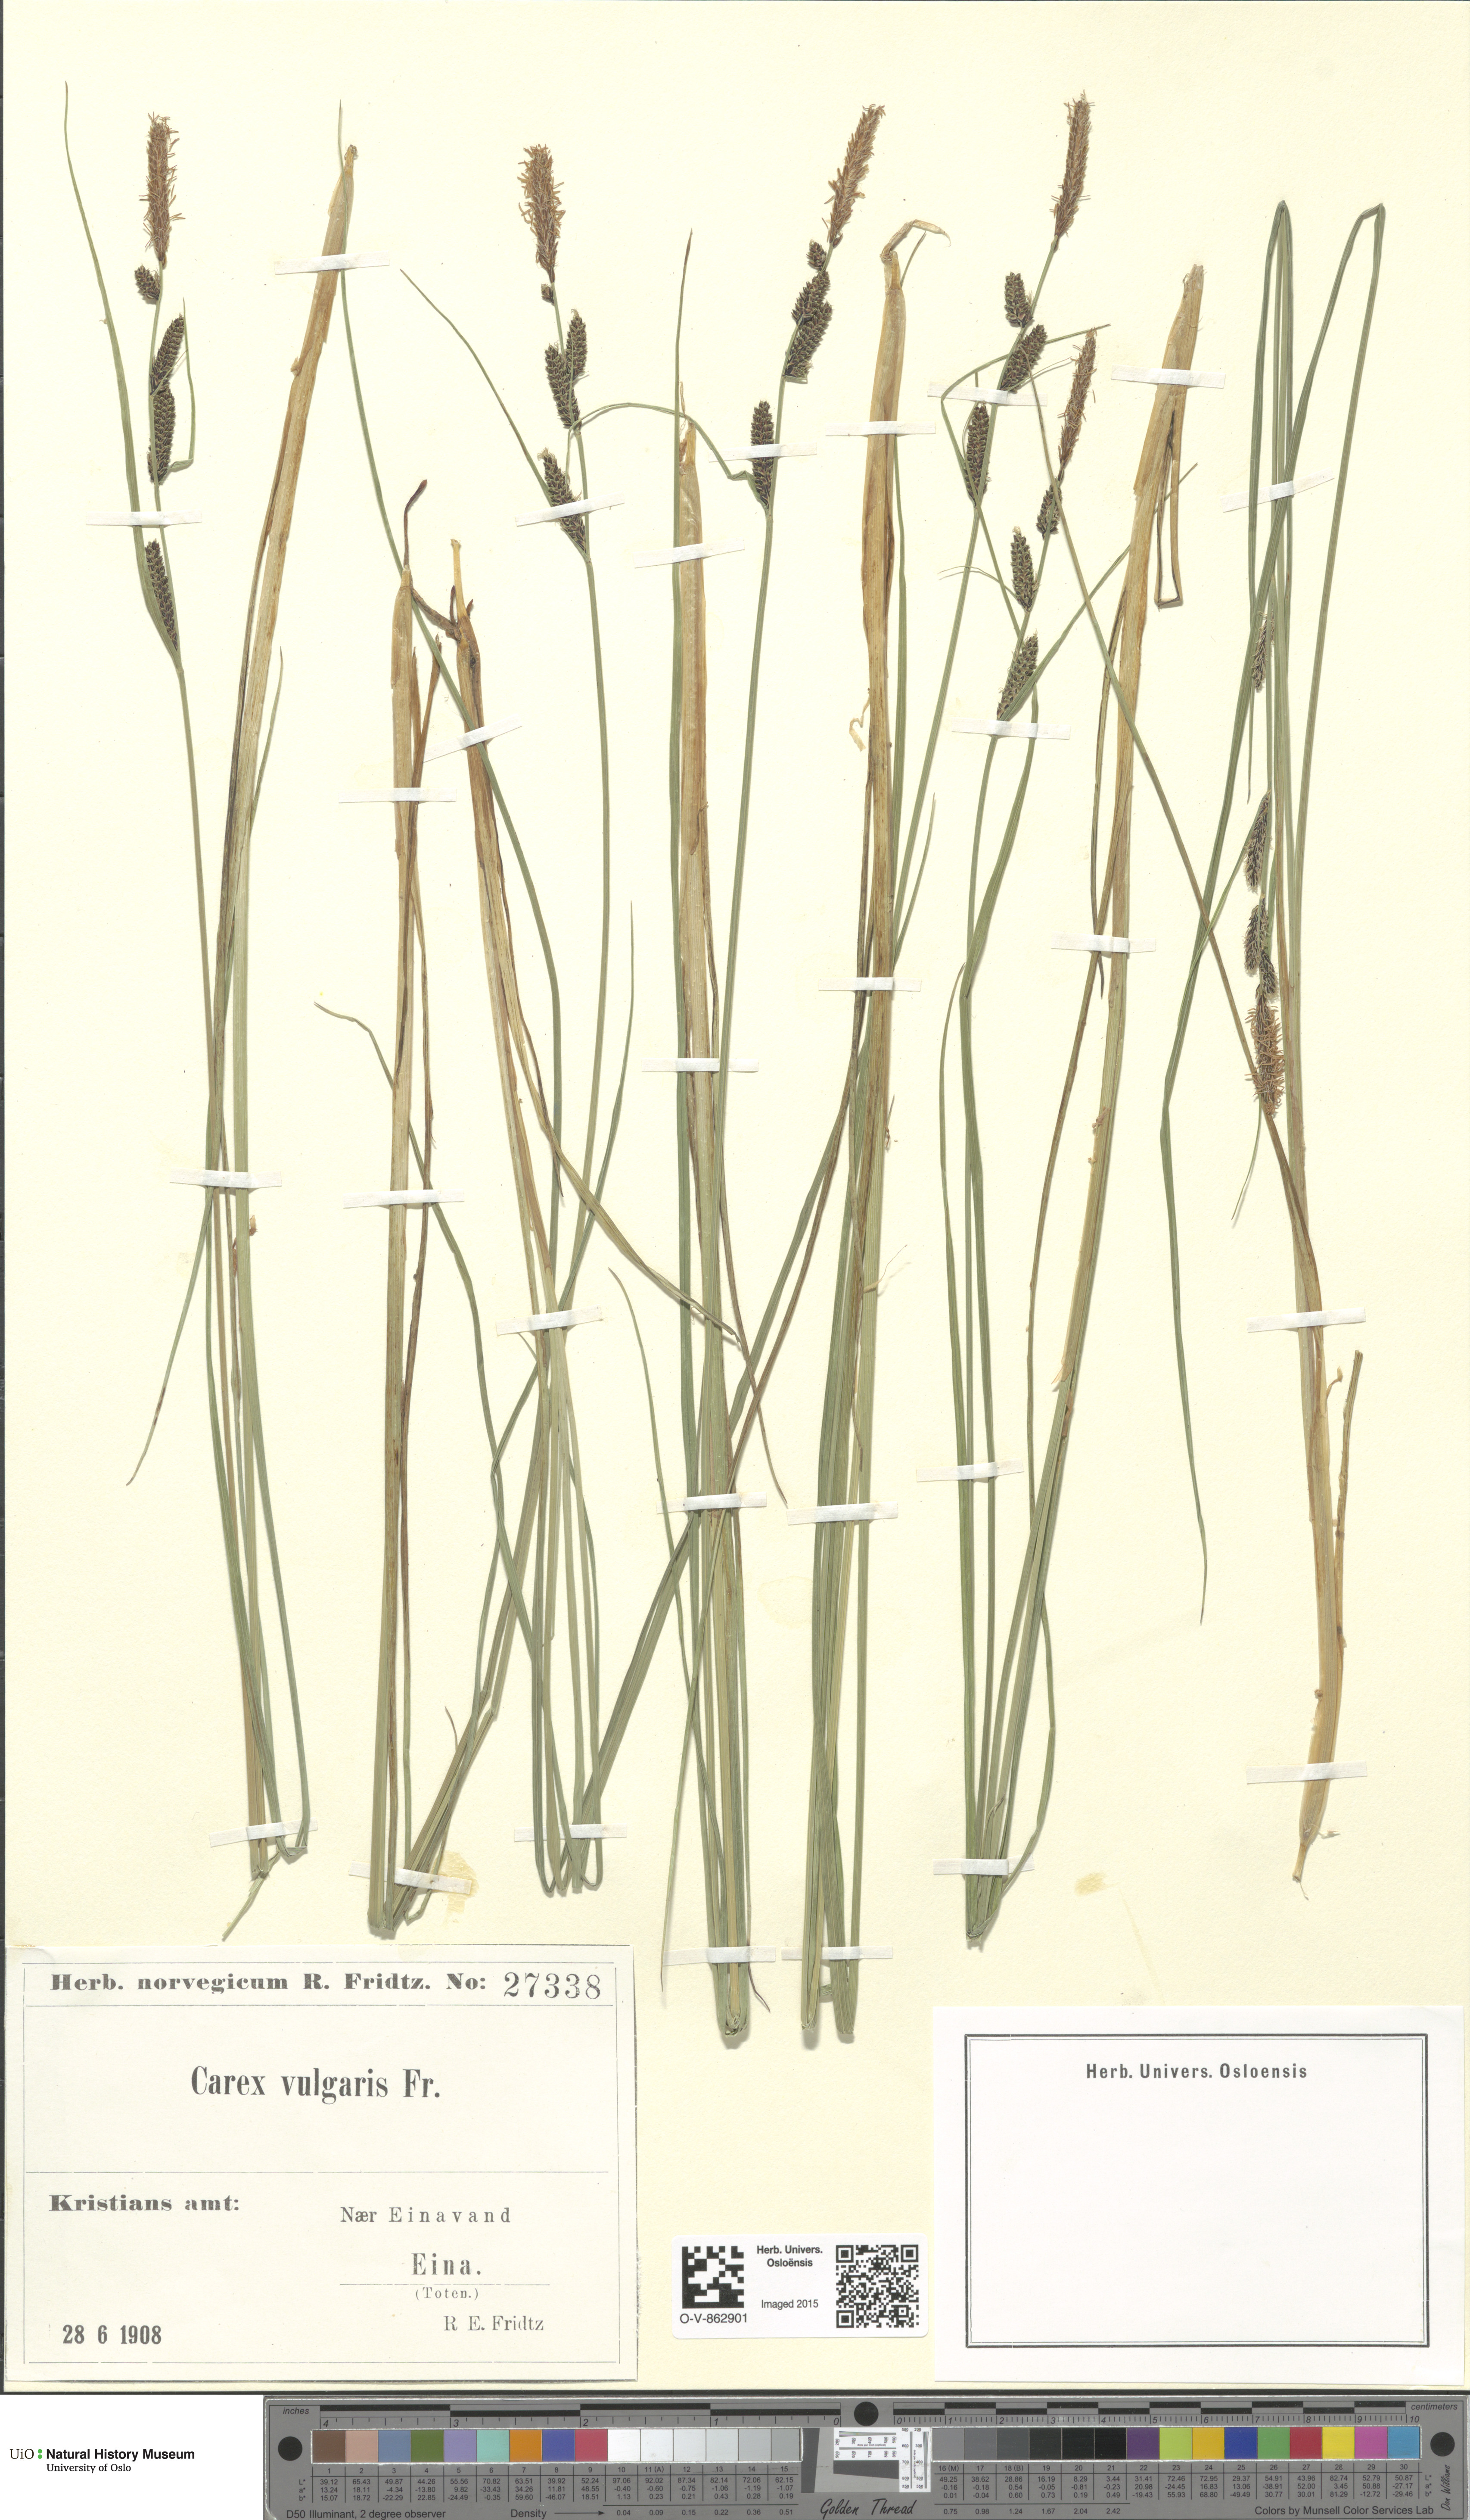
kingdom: Plantae
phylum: Tracheophyta
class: Liliopsida
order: Poales
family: Cyperaceae
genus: Carex
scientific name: Carex nigra
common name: Common sedge
